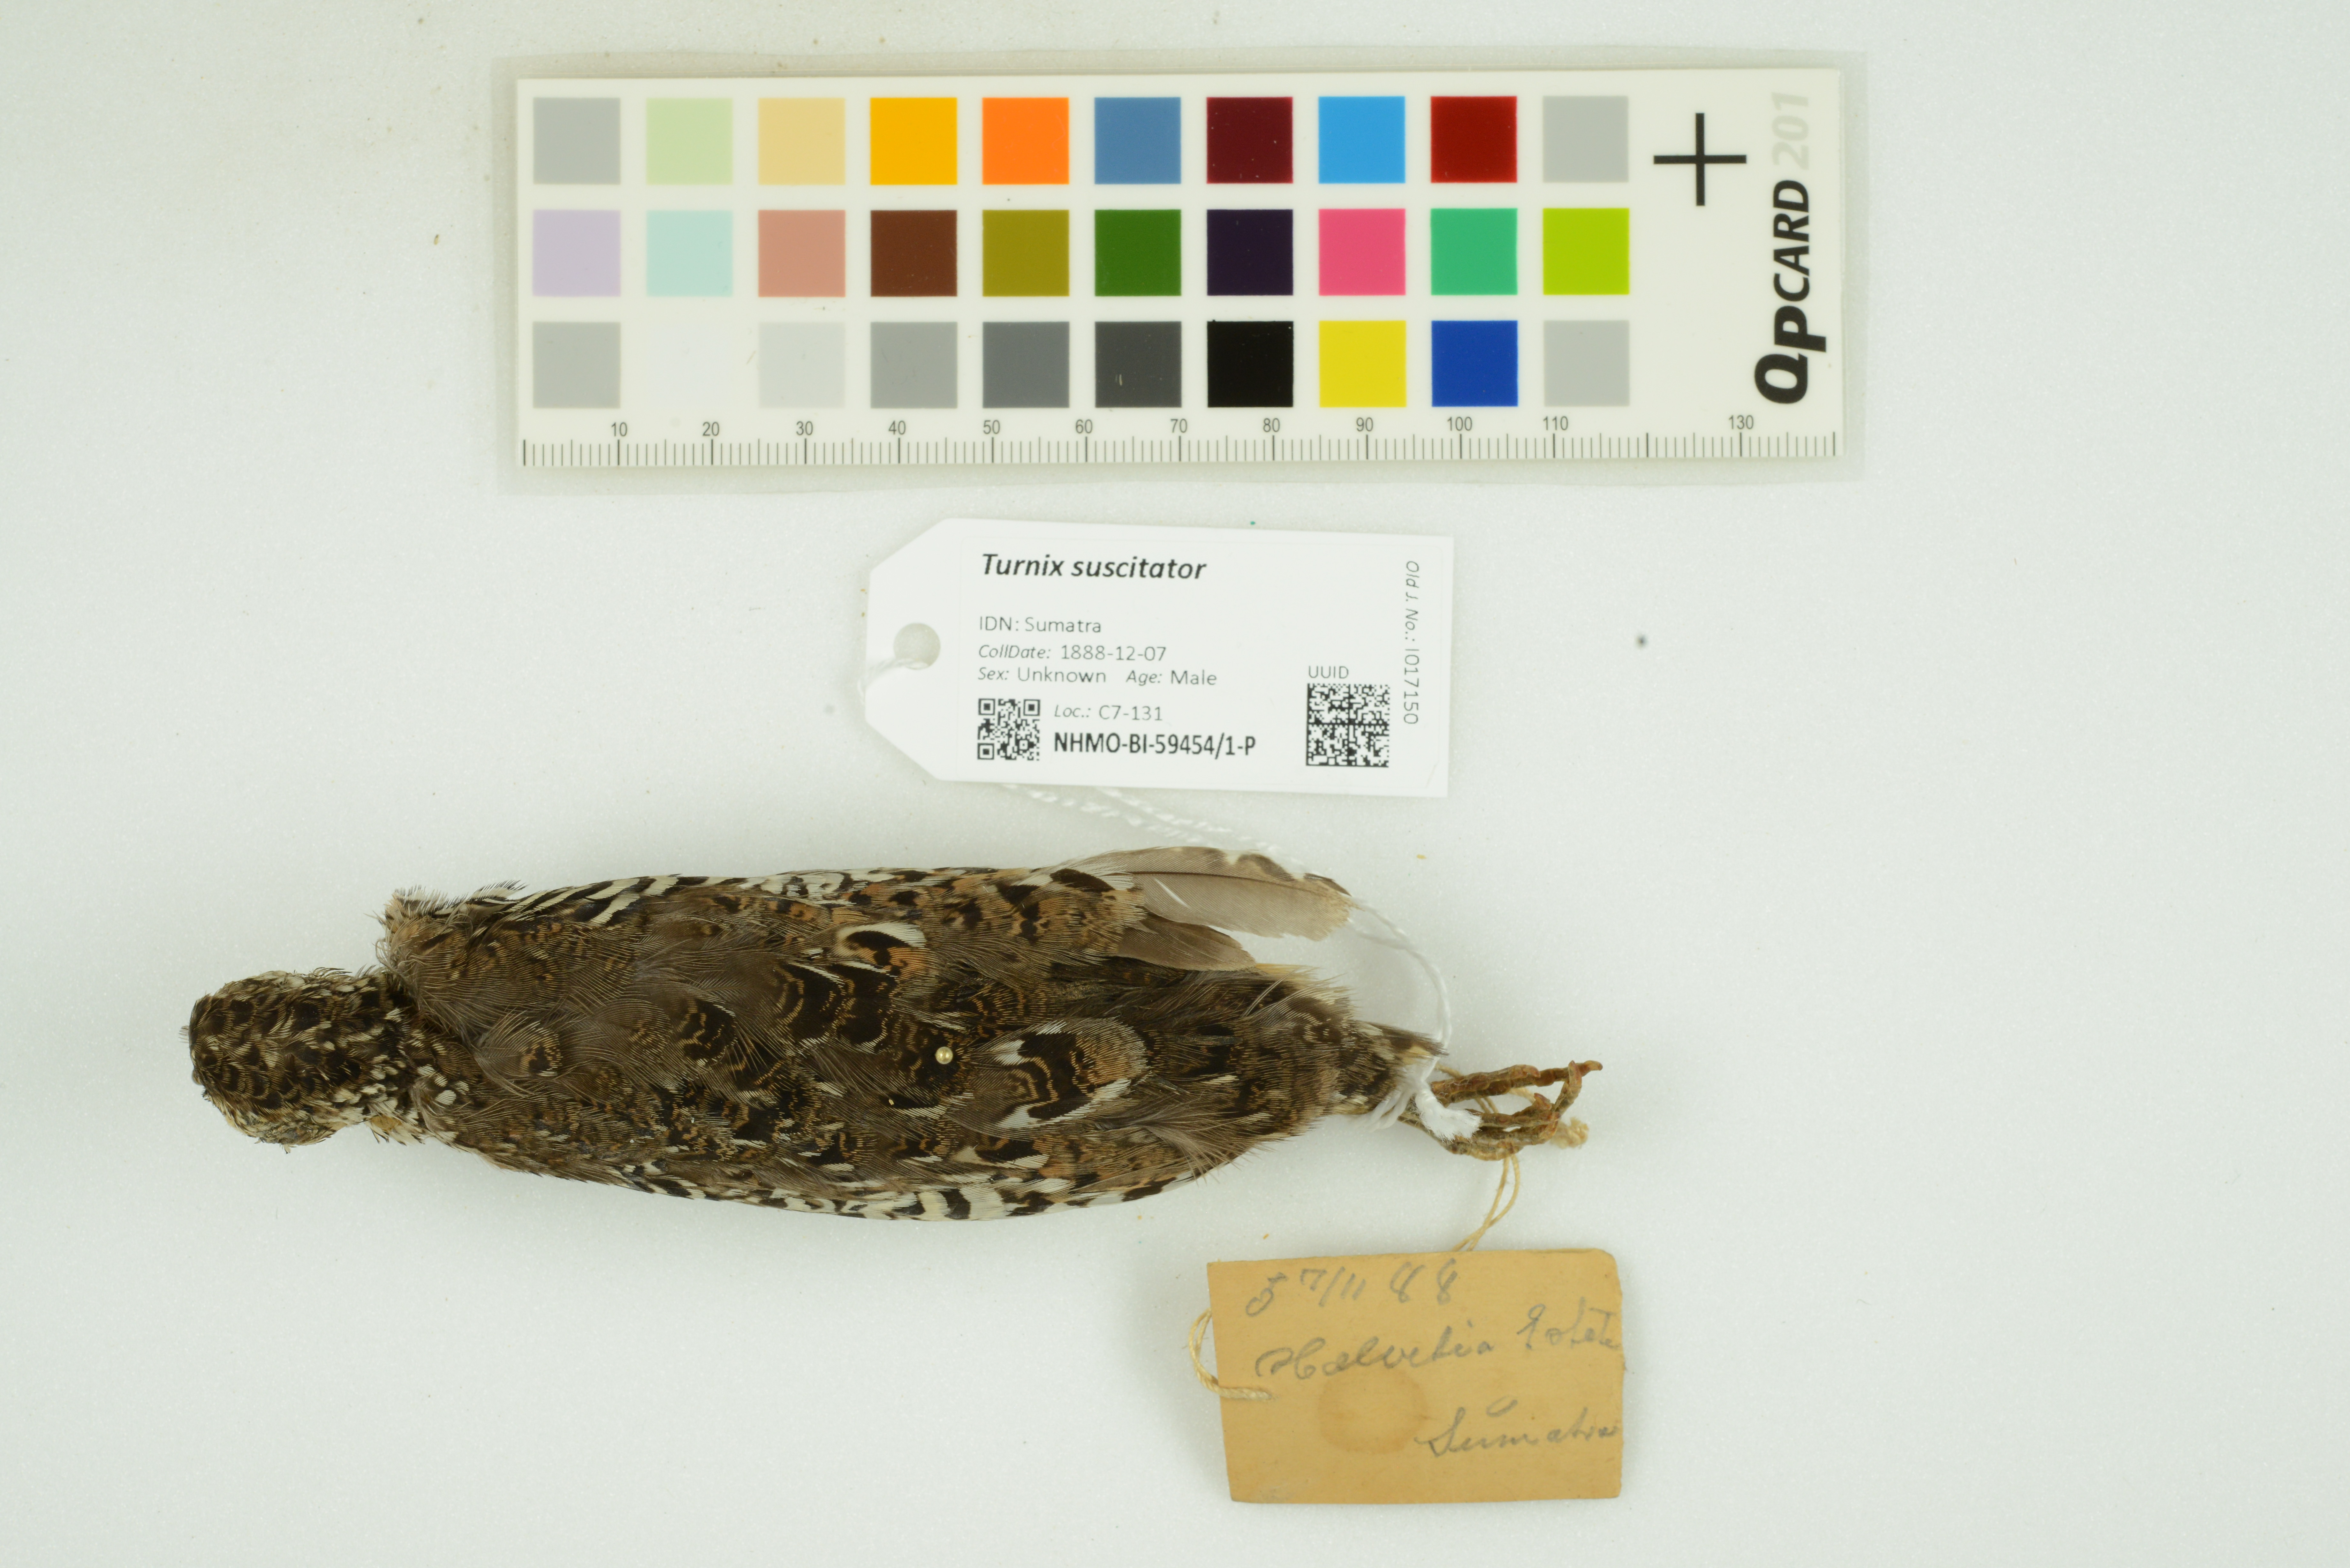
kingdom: Animalia
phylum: Chordata
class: Aves
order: Charadriiformes
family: Turnicidae
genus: Turnix
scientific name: Turnix suscitator
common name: Barred buttonquail
